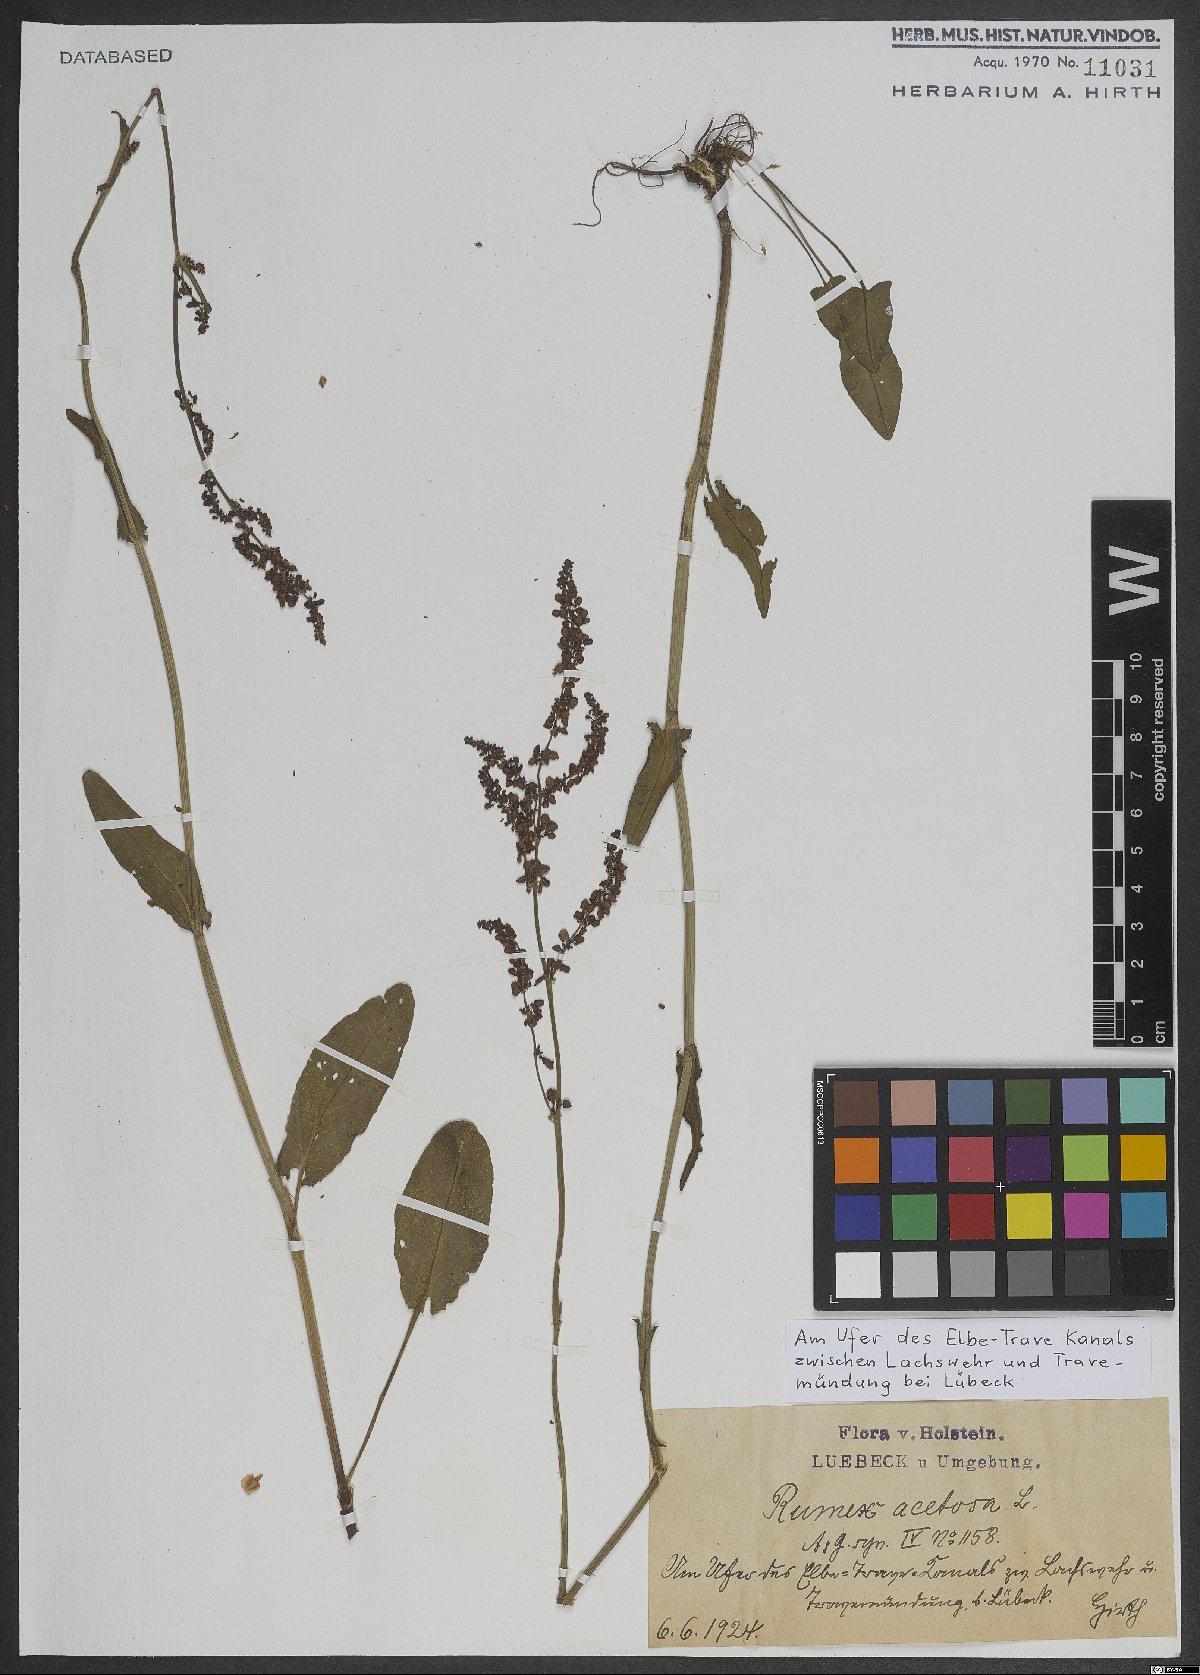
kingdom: Plantae
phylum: Tracheophyta
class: Magnoliopsida
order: Caryophyllales
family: Polygonaceae
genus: Rumex
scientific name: Rumex acetosa
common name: Garden sorrel
